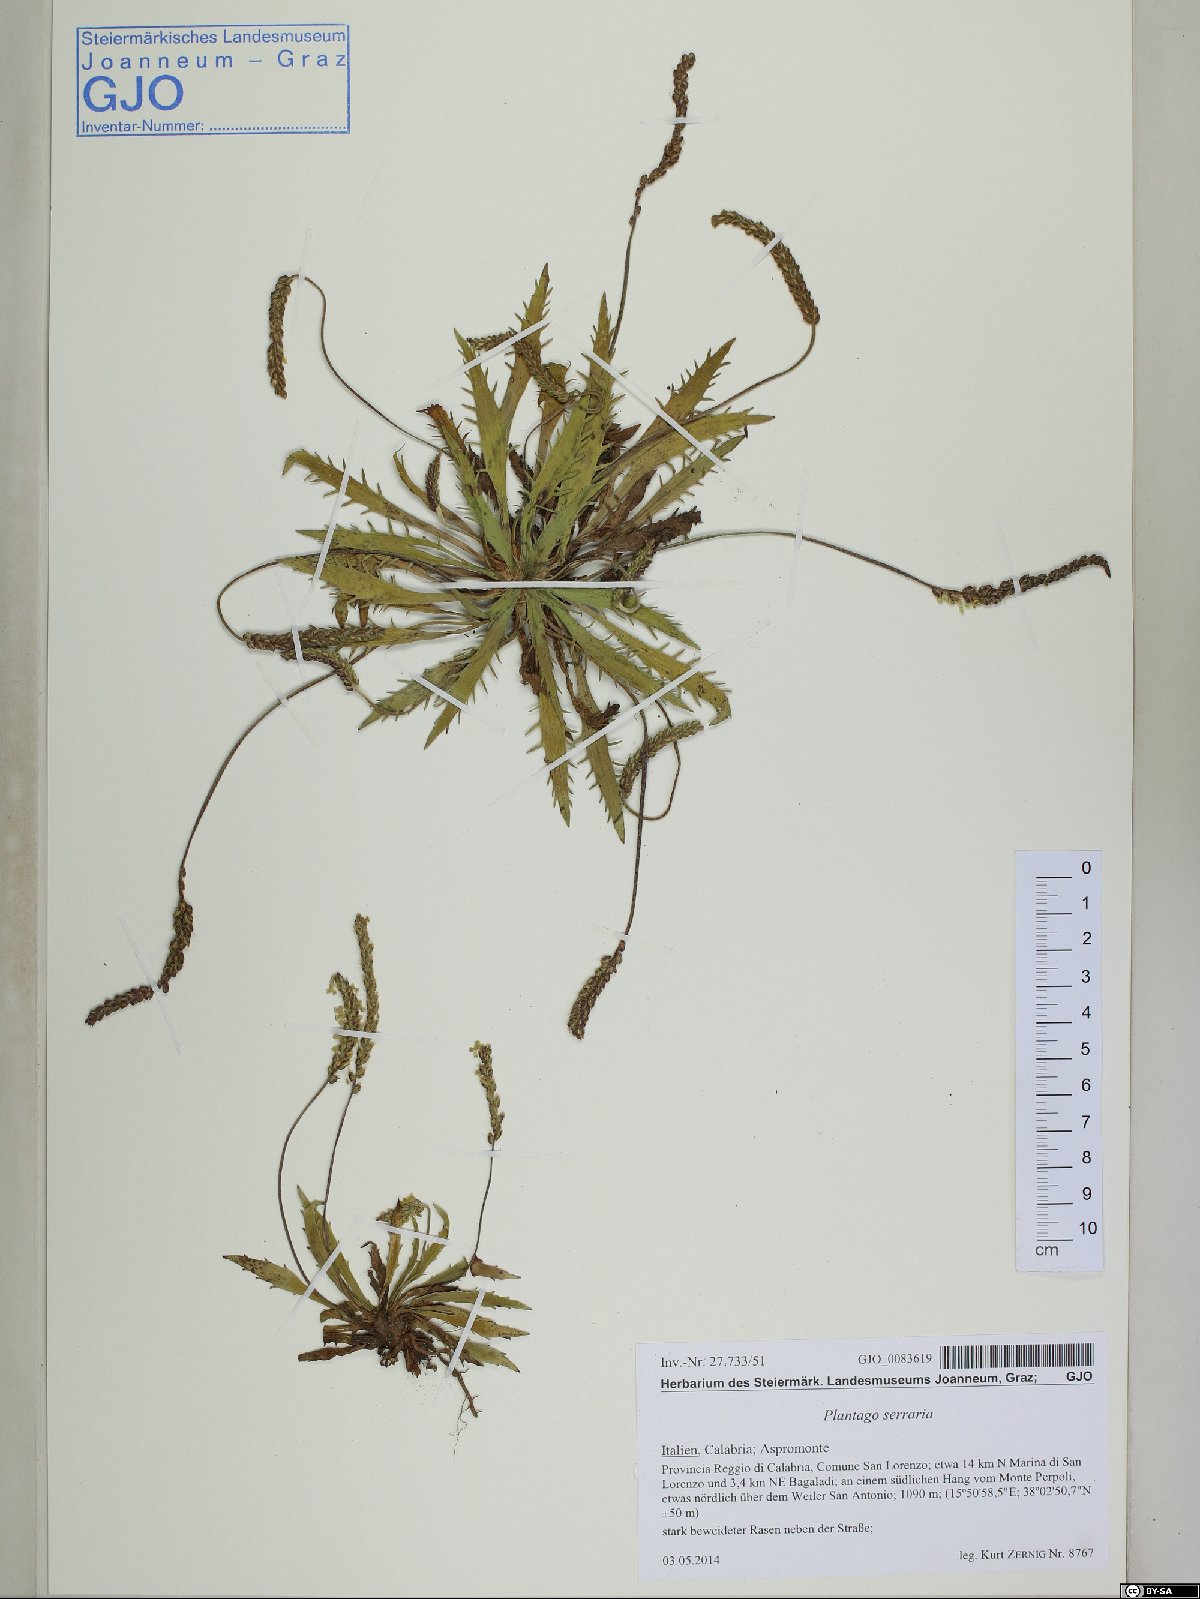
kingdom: Plantae
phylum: Tracheophyta
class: Magnoliopsida
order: Lamiales
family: Plantaginaceae
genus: Plantago
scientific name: Plantago serraria
